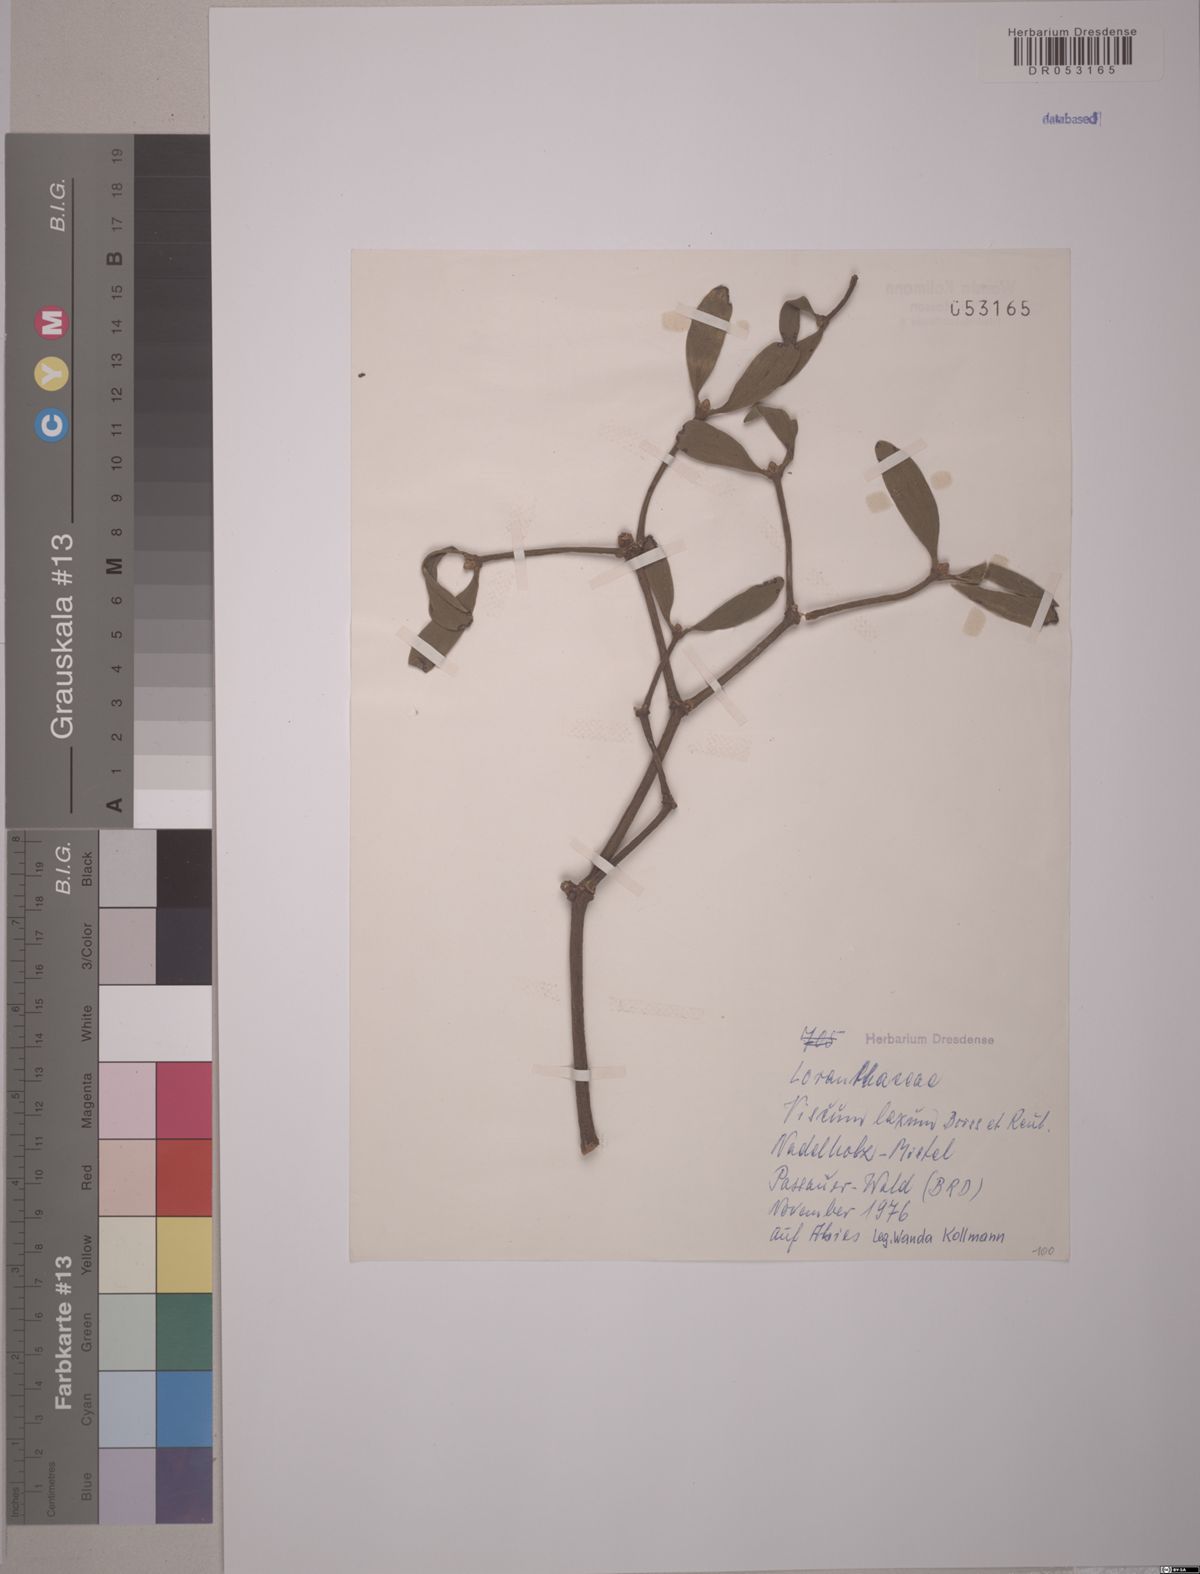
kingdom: Plantae
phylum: Tracheophyta
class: Magnoliopsida
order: Santalales
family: Viscaceae
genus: Viscum
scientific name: Viscum laxum
